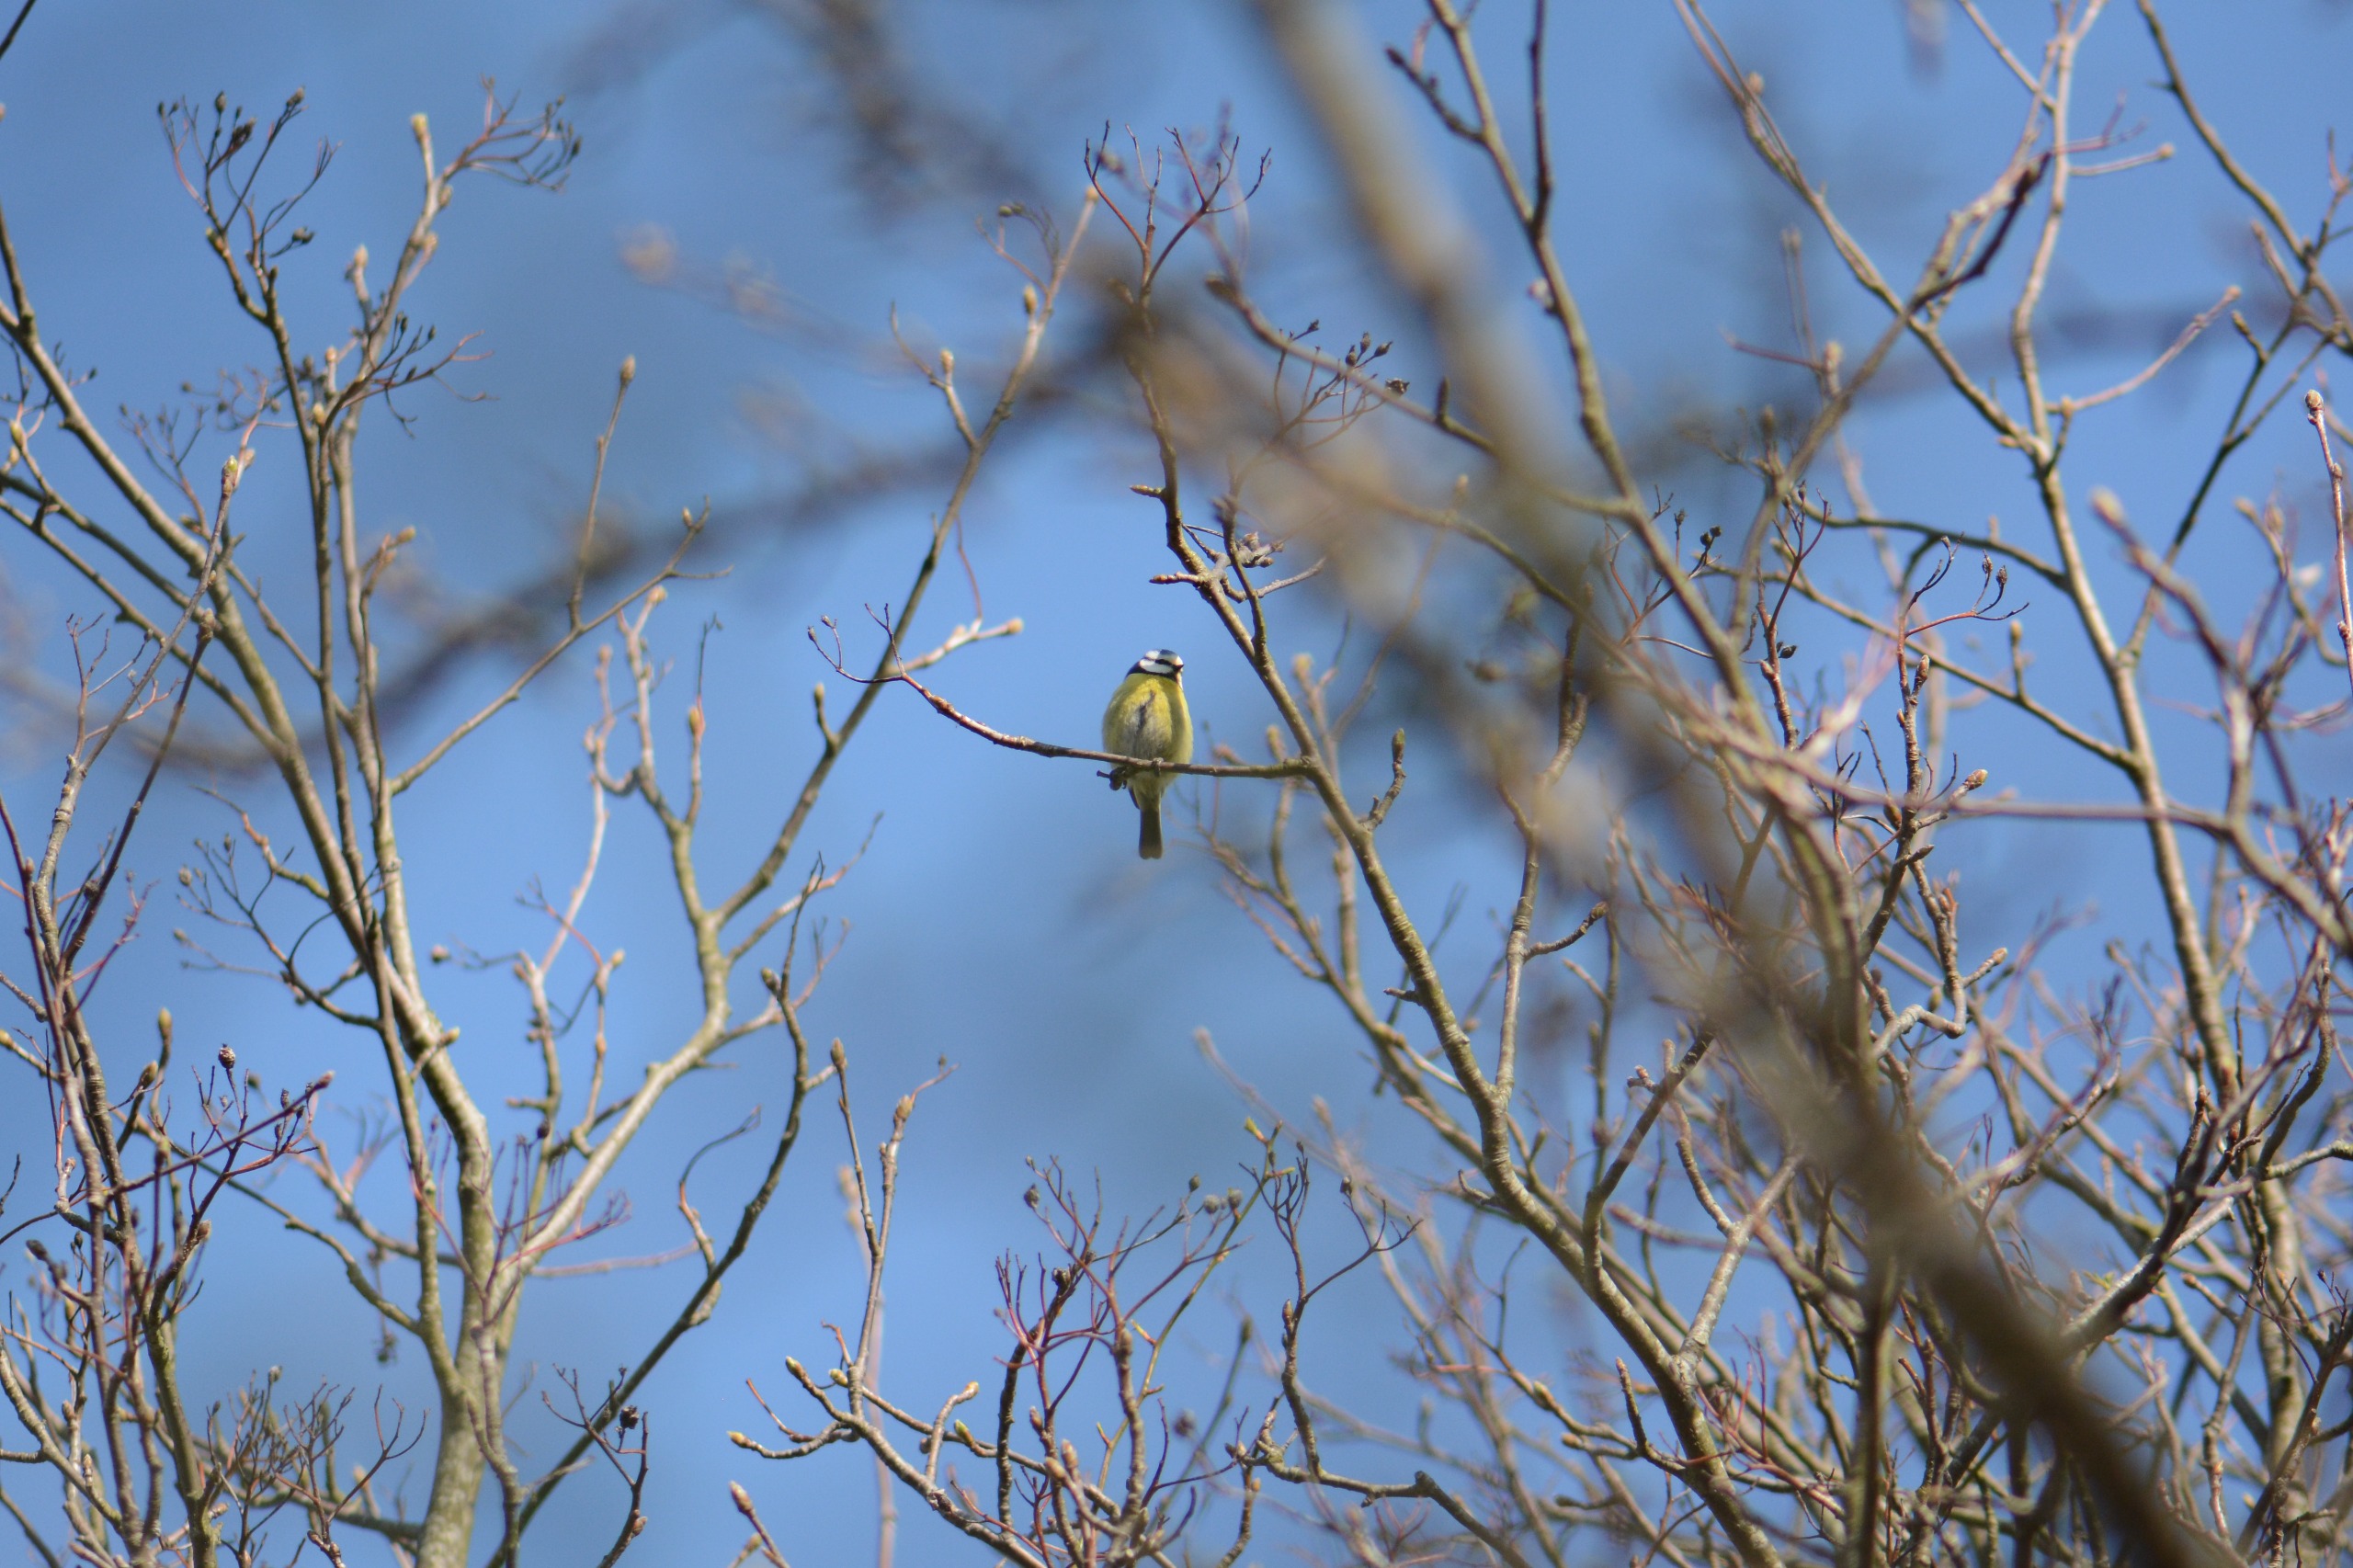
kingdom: Animalia
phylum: Chordata
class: Aves
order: Passeriformes
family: Paridae
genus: Cyanistes
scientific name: Cyanistes caeruleus
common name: Blåmejse
